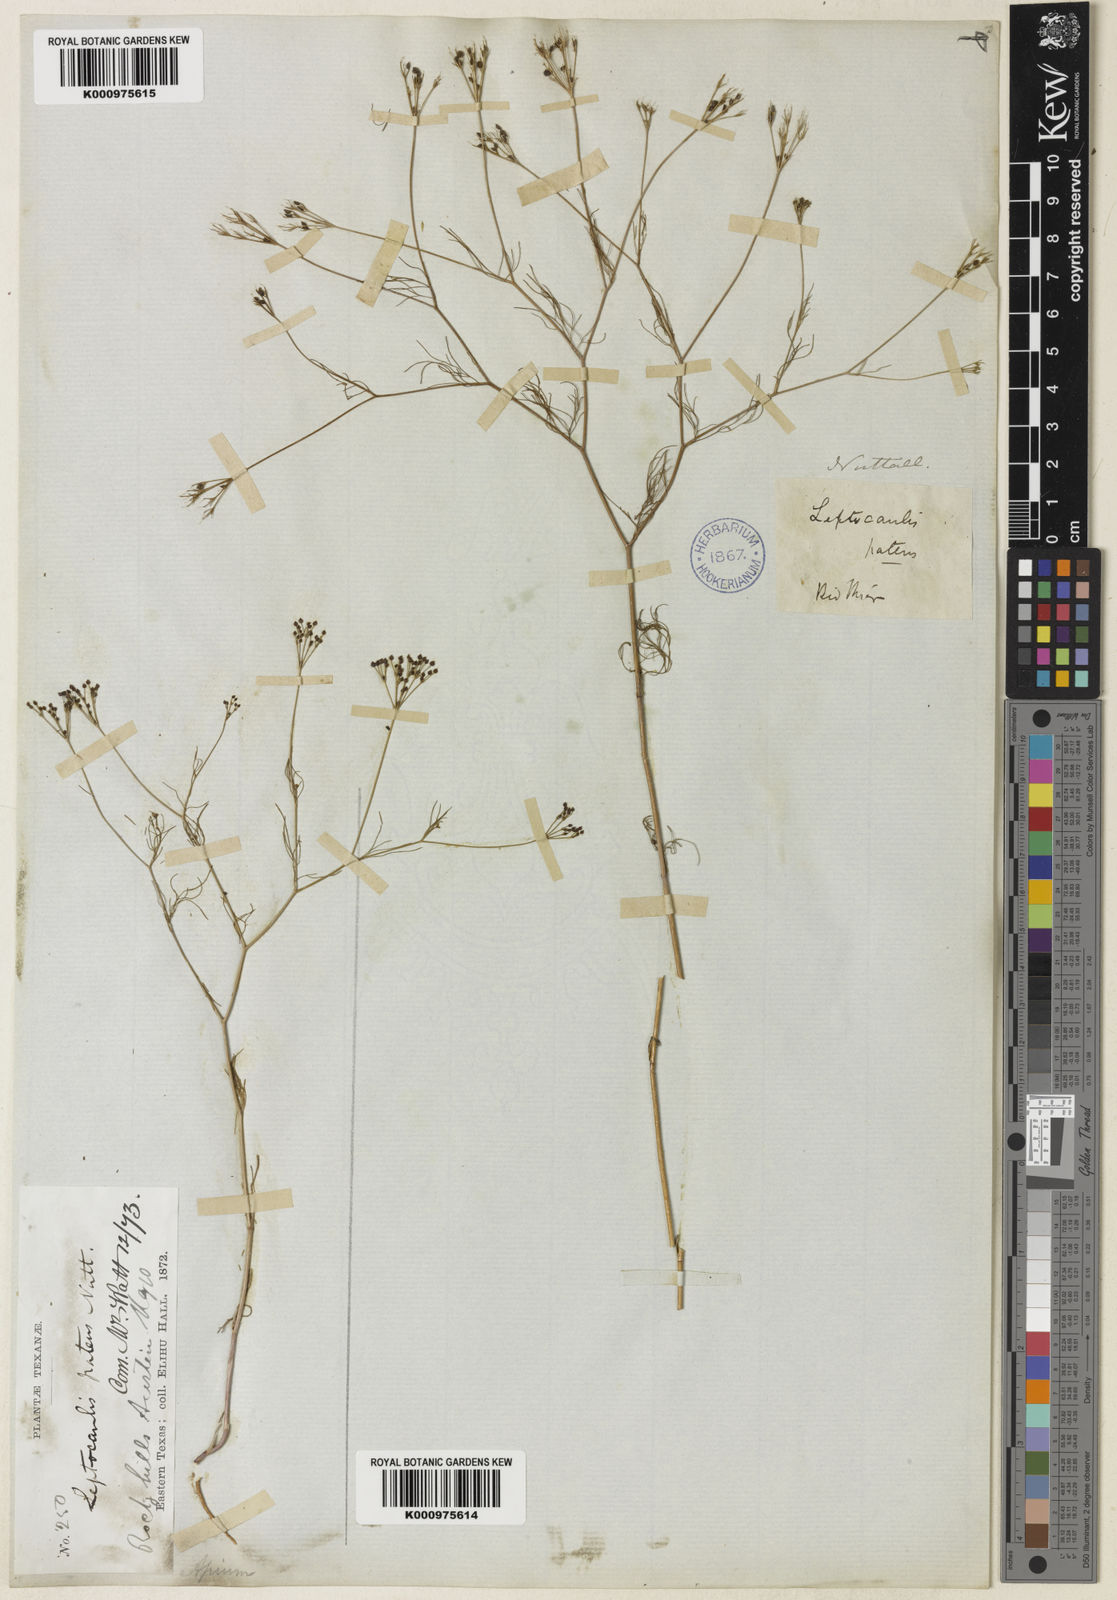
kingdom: Plantae
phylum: Tracheophyta
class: Magnoliopsida
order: Apiales
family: Apiaceae
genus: Spermolepis
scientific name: Spermolepis inermis
